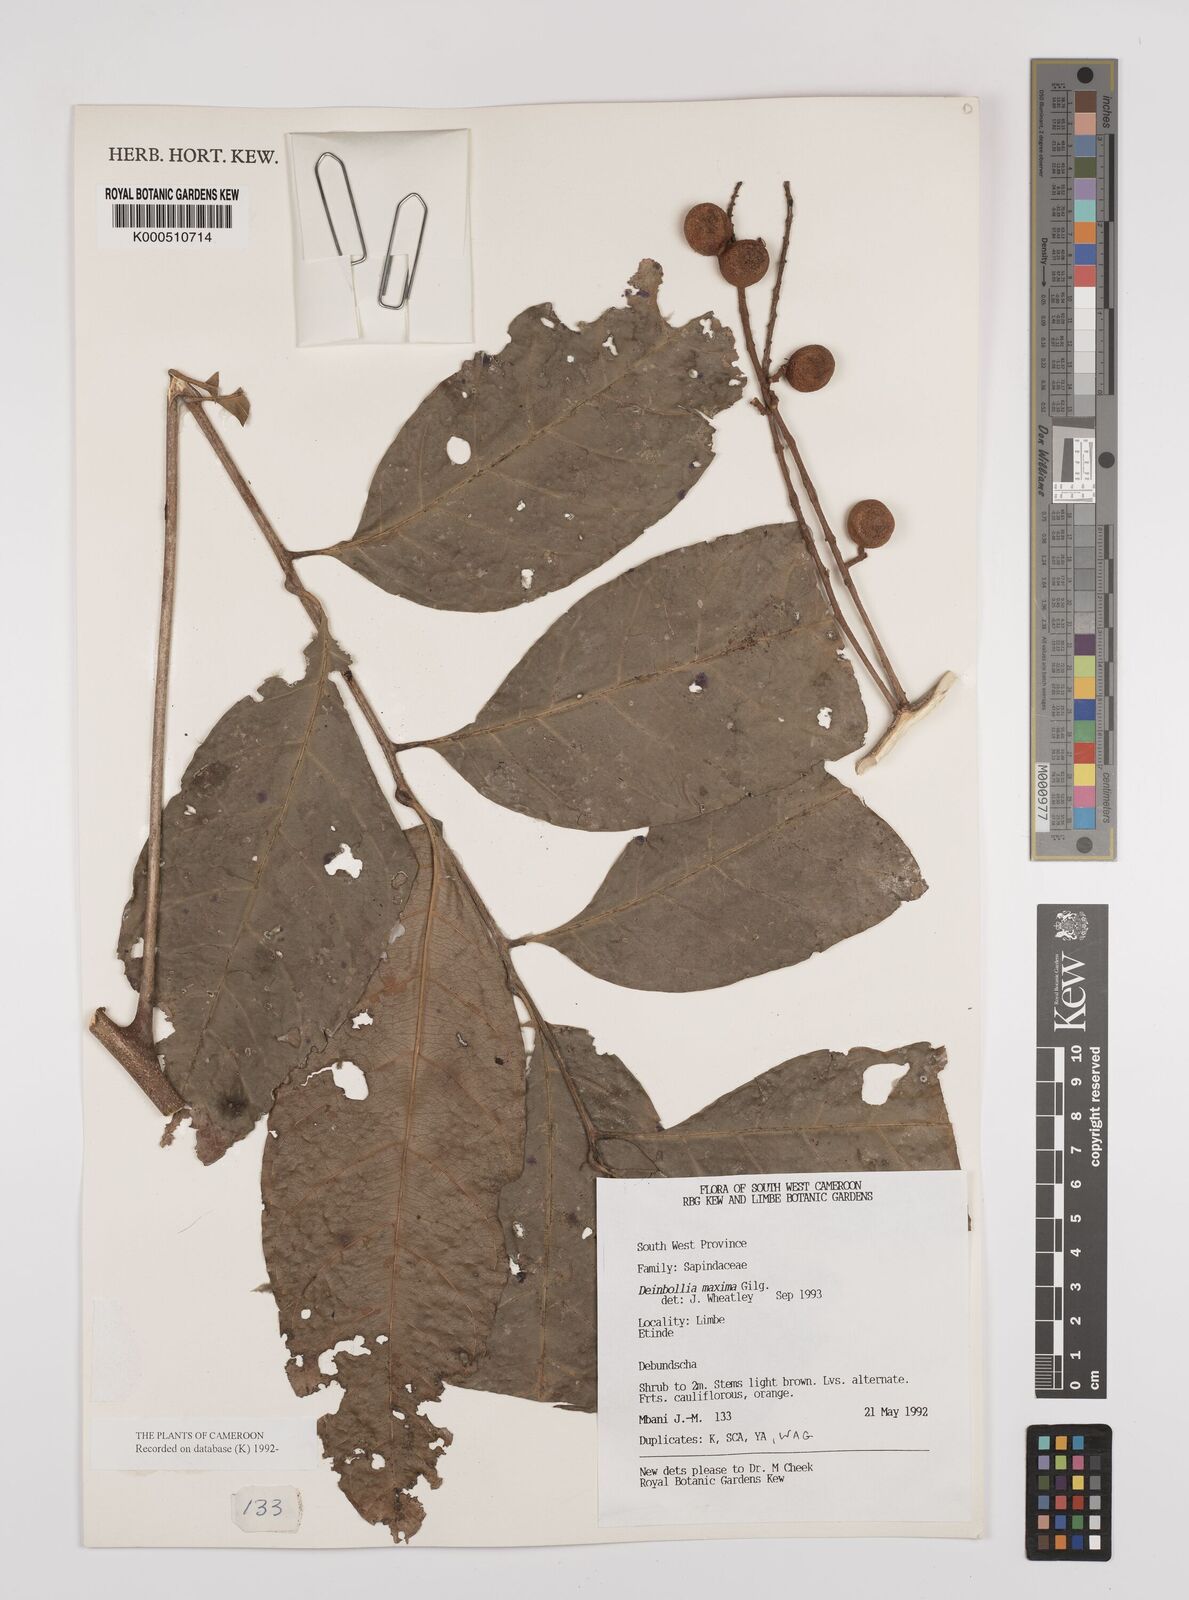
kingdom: Plantae
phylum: Tracheophyta
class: Magnoliopsida
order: Sapindales
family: Sapindaceae
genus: Deinbollia
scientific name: Deinbollia maxima
